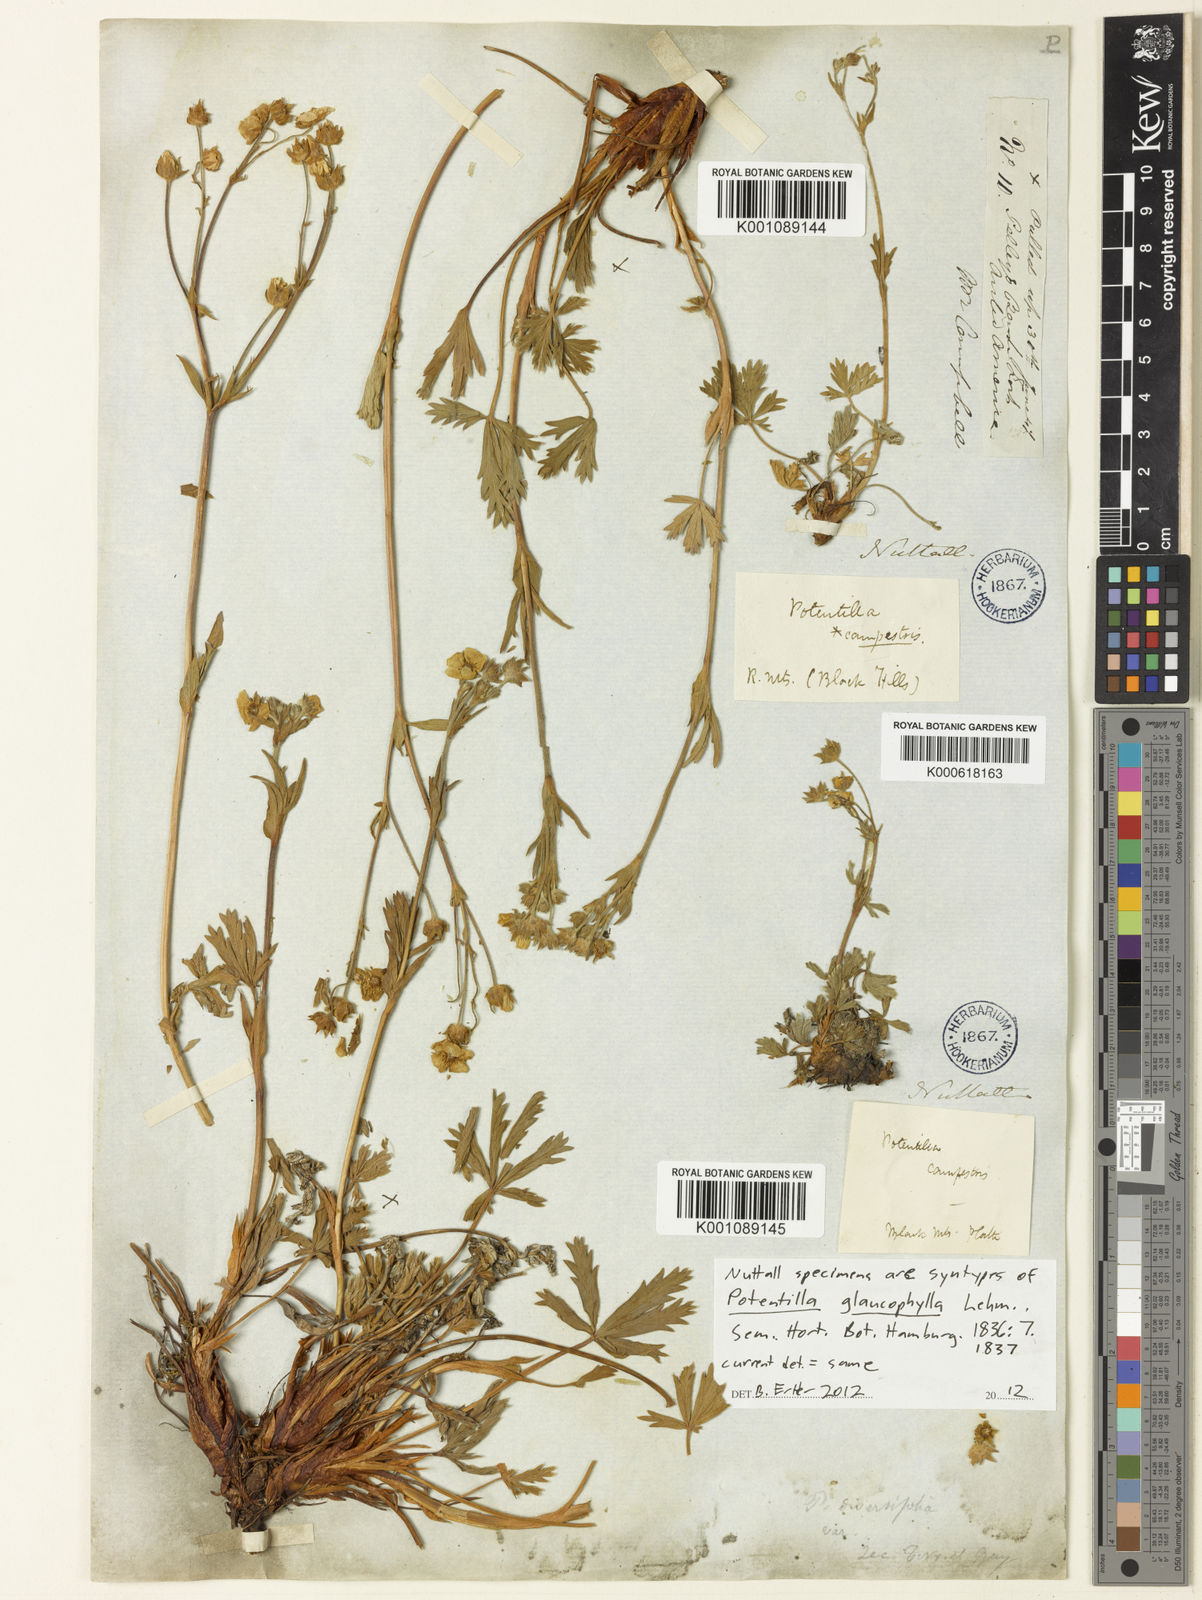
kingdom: Plantae
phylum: Tracheophyta
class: Magnoliopsida
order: Rosales
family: Rosaceae
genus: Potentilla
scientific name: Potentilla glaucophylla
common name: Blue-leaved cinquefoil
